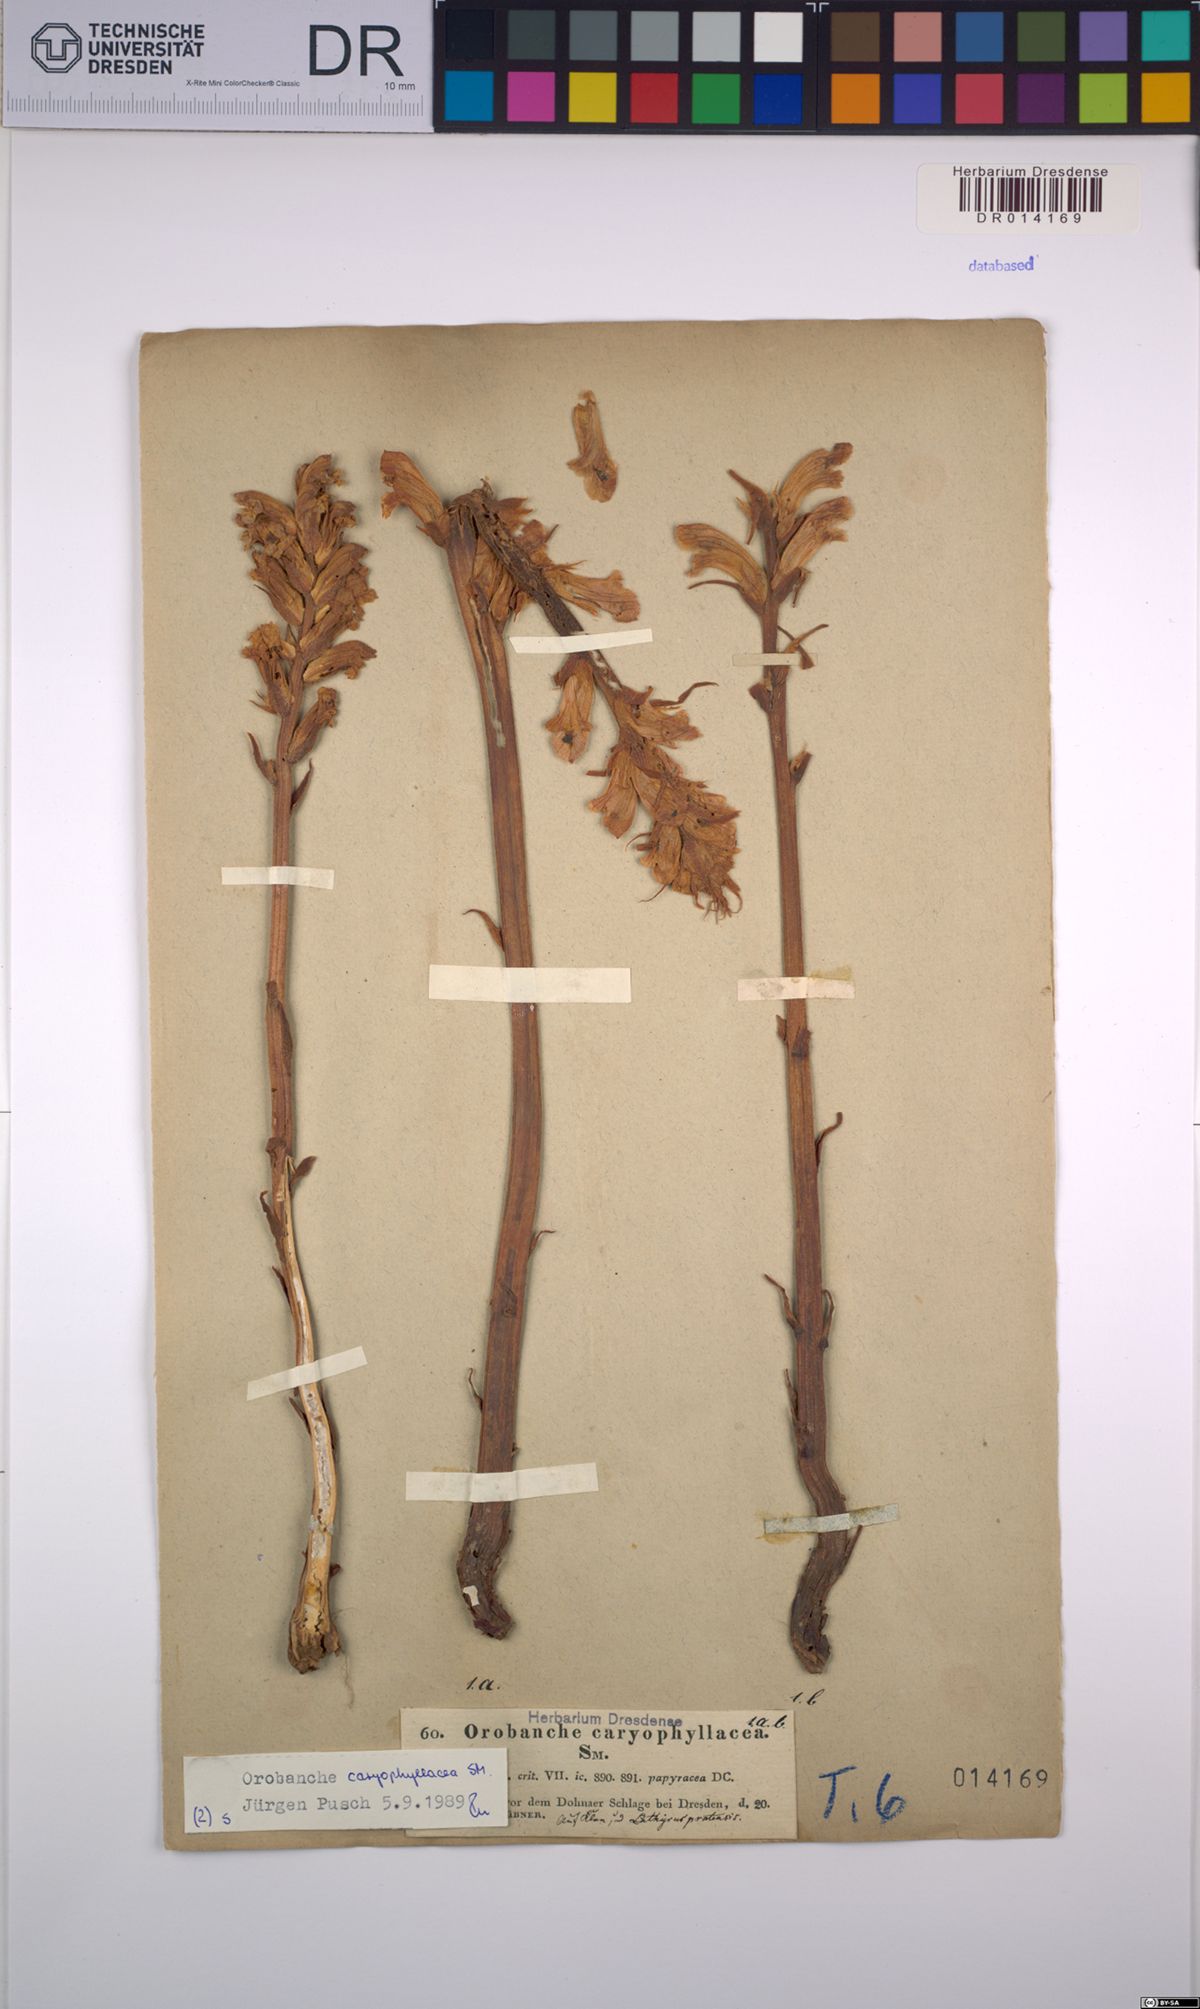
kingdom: Plantae
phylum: Tracheophyta
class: Magnoliopsida
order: Lamiales
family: Orobanchaceae
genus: Orobanche
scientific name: Orobanche caryophyllacea
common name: Bedstraw broomrape
